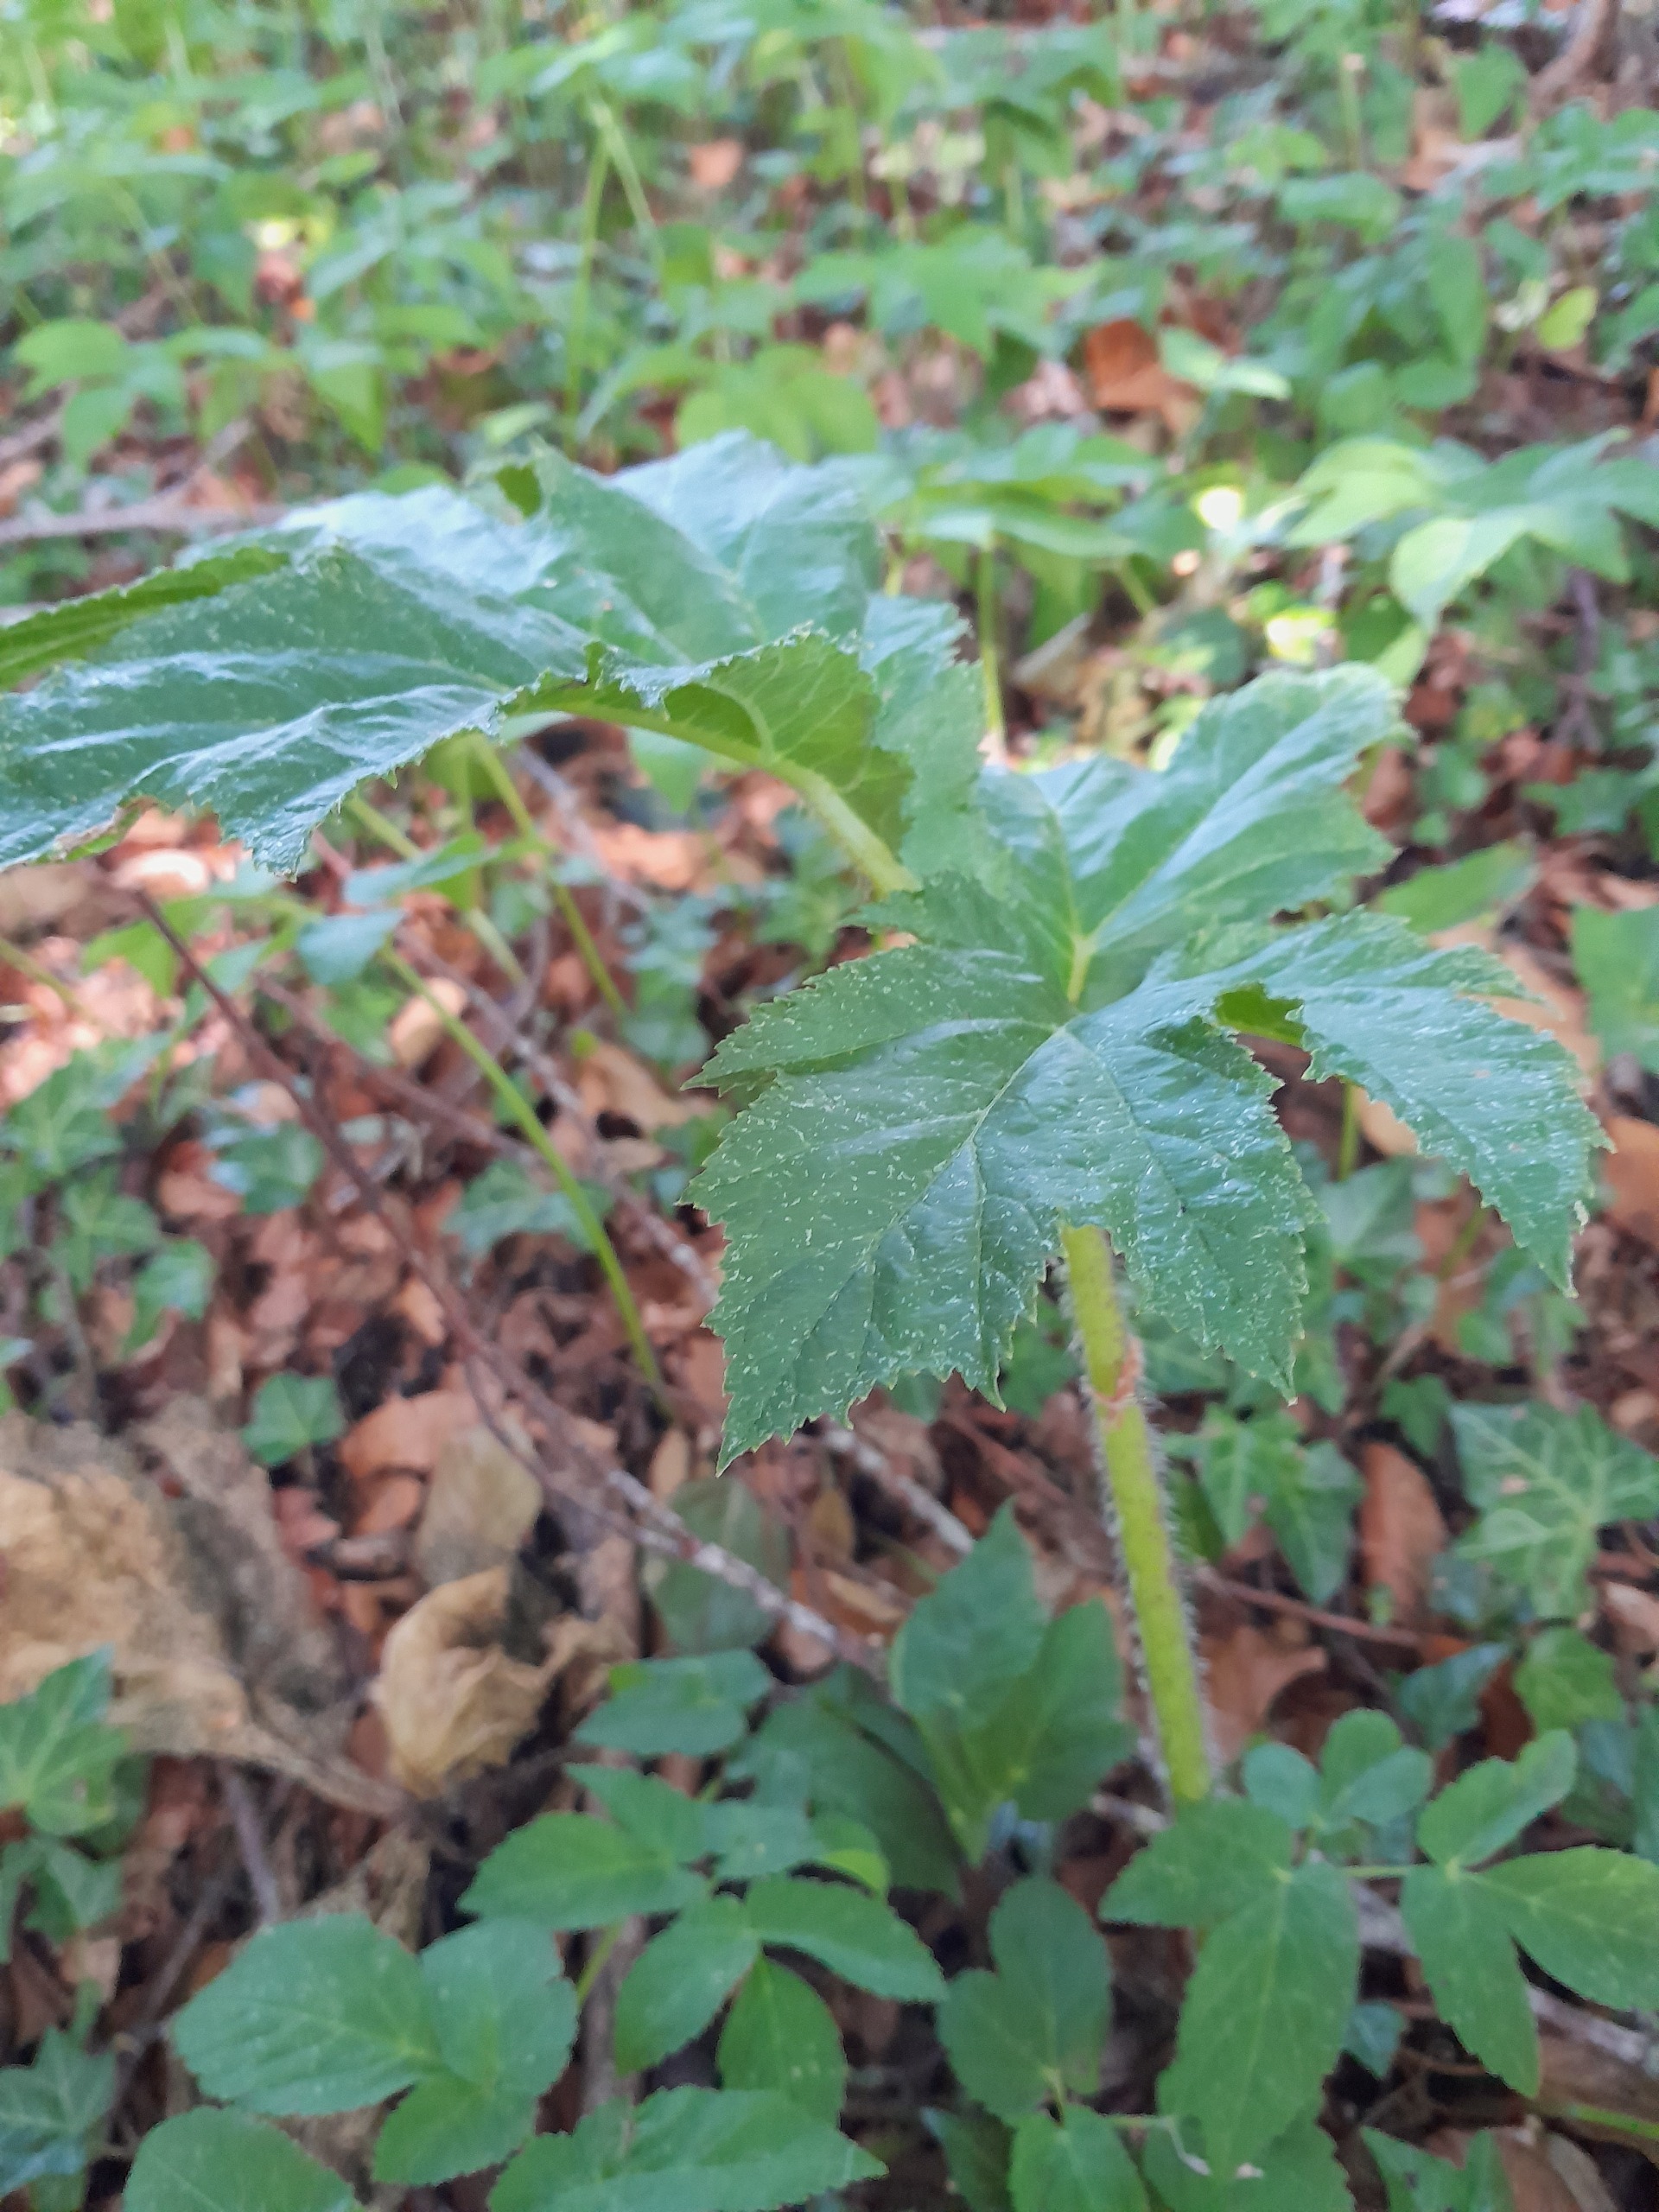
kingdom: Plantae
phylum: Tracheophyta
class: Magnoliopsida
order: Apiales
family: Apiaceae
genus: Heracleum
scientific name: Heracleum mantegazzianum
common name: Kæmpe-bjørneklo
